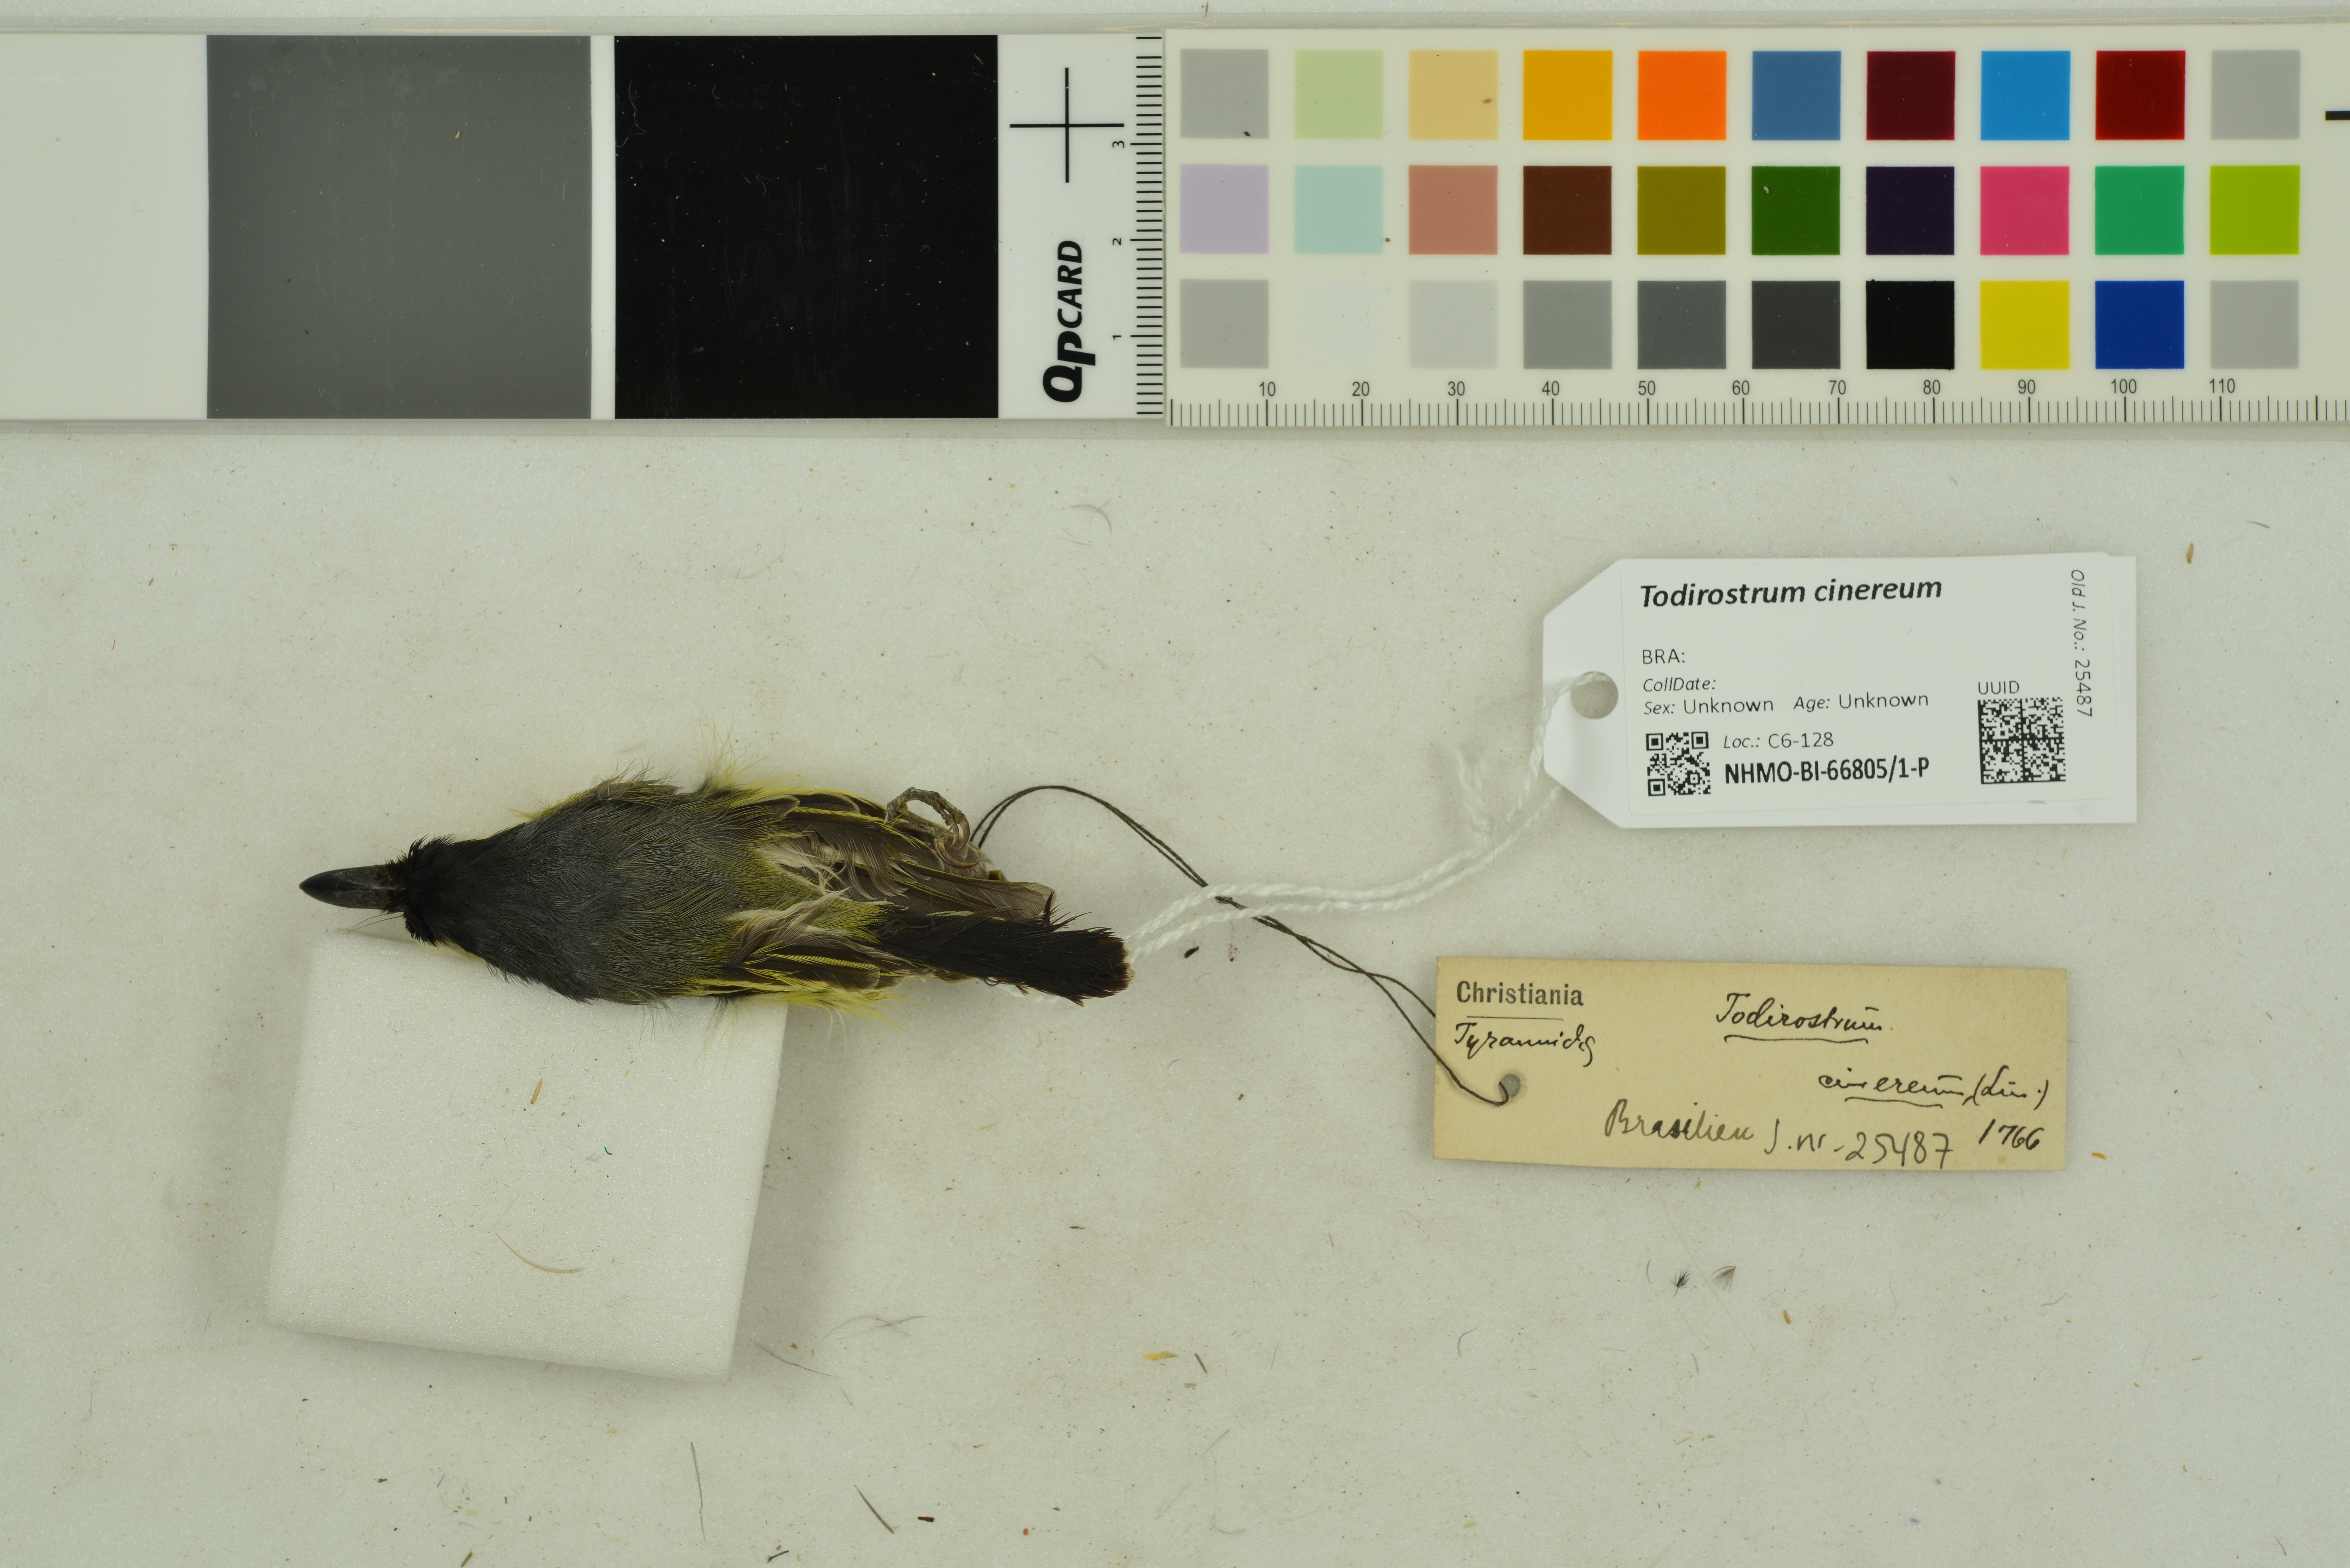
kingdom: Animalia
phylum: Chordata
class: Aves
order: Passeriformes
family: Tyrannidae
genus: Todirostrum
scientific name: Todirostrum cinereum
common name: Common tody-flycatcher
